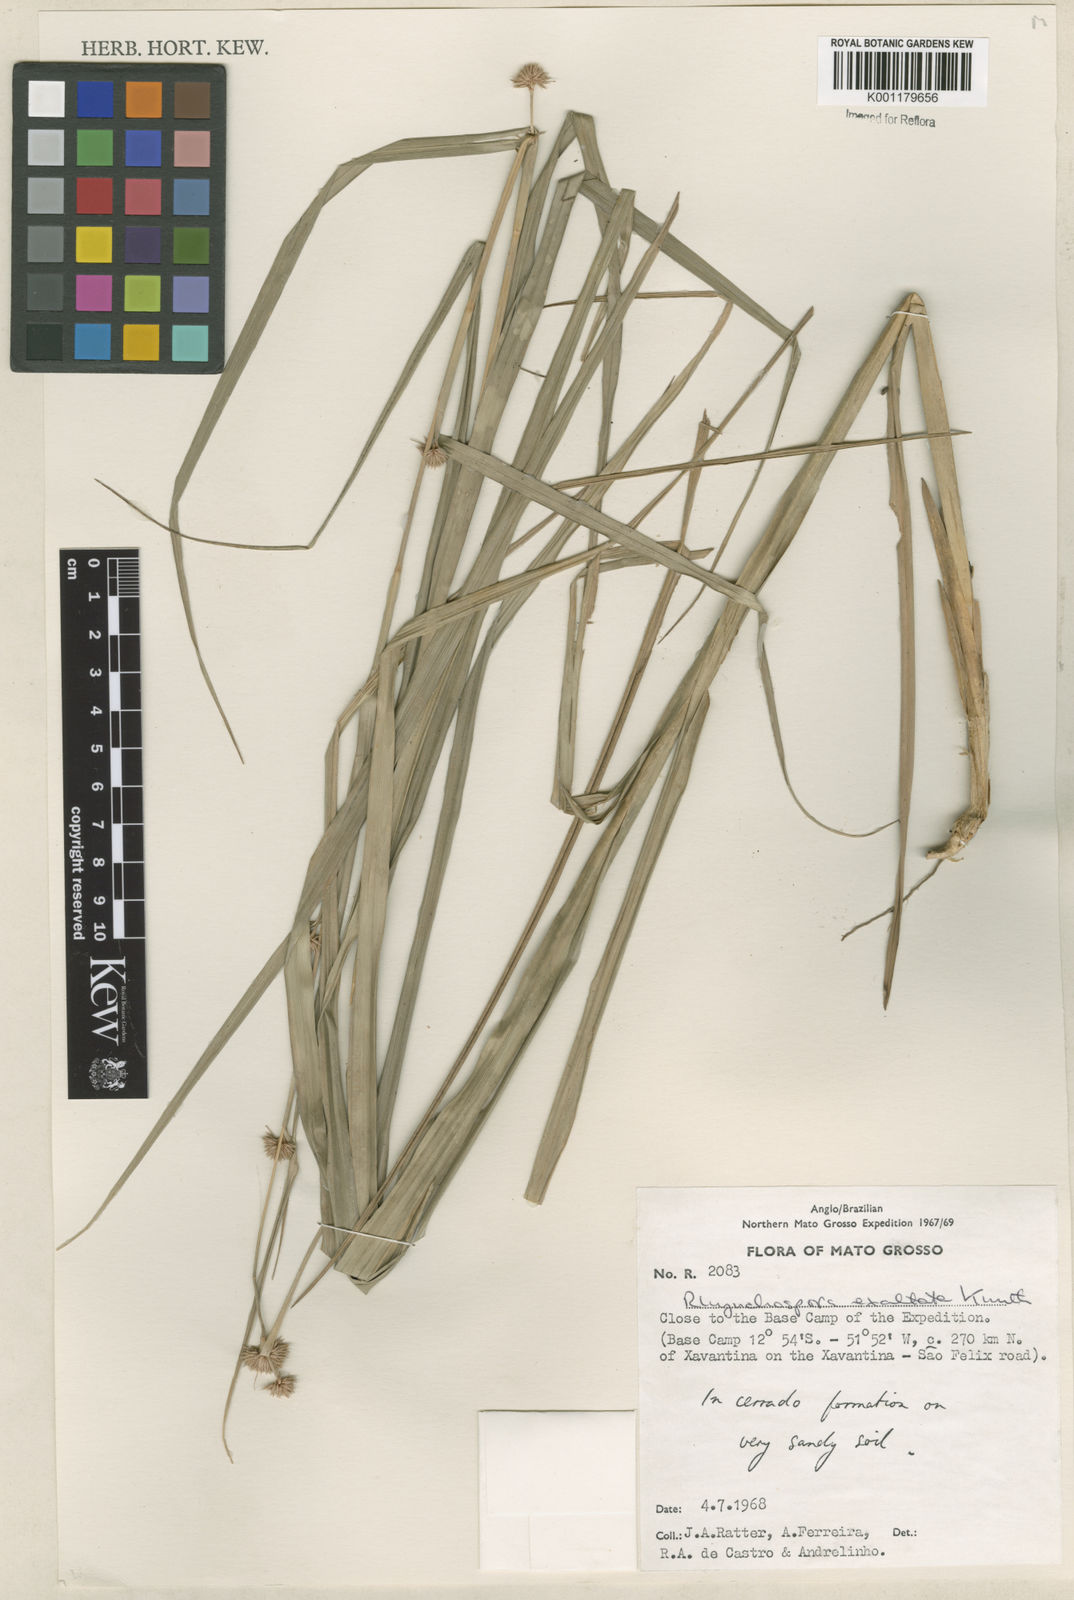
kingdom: Plantae
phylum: Tracheophyta
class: Liliopsida
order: Poales
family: Cyperaceae
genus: Rhynchospora
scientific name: Rhynchospora exaltata
